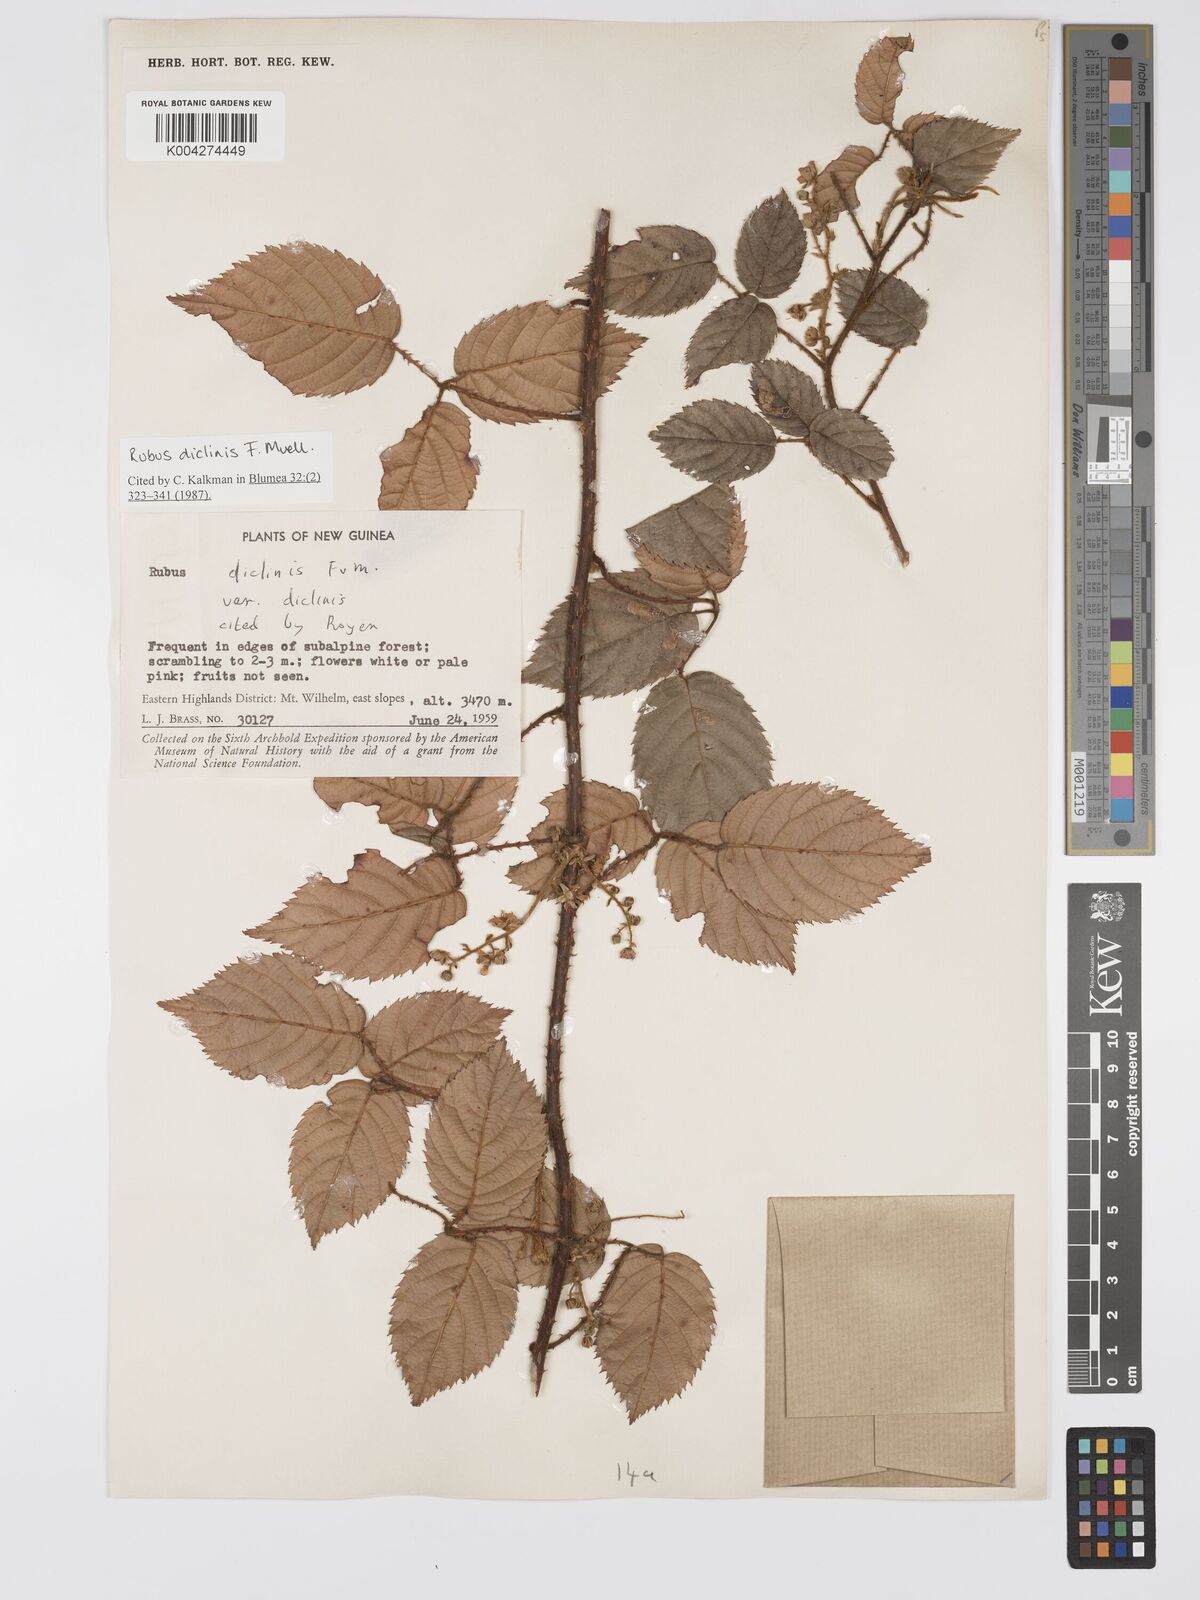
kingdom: Plantae
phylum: Tracheophyta
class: Magnoliopsida
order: Rosales
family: Rosaceae
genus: Rubus
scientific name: Rubus diclinis
